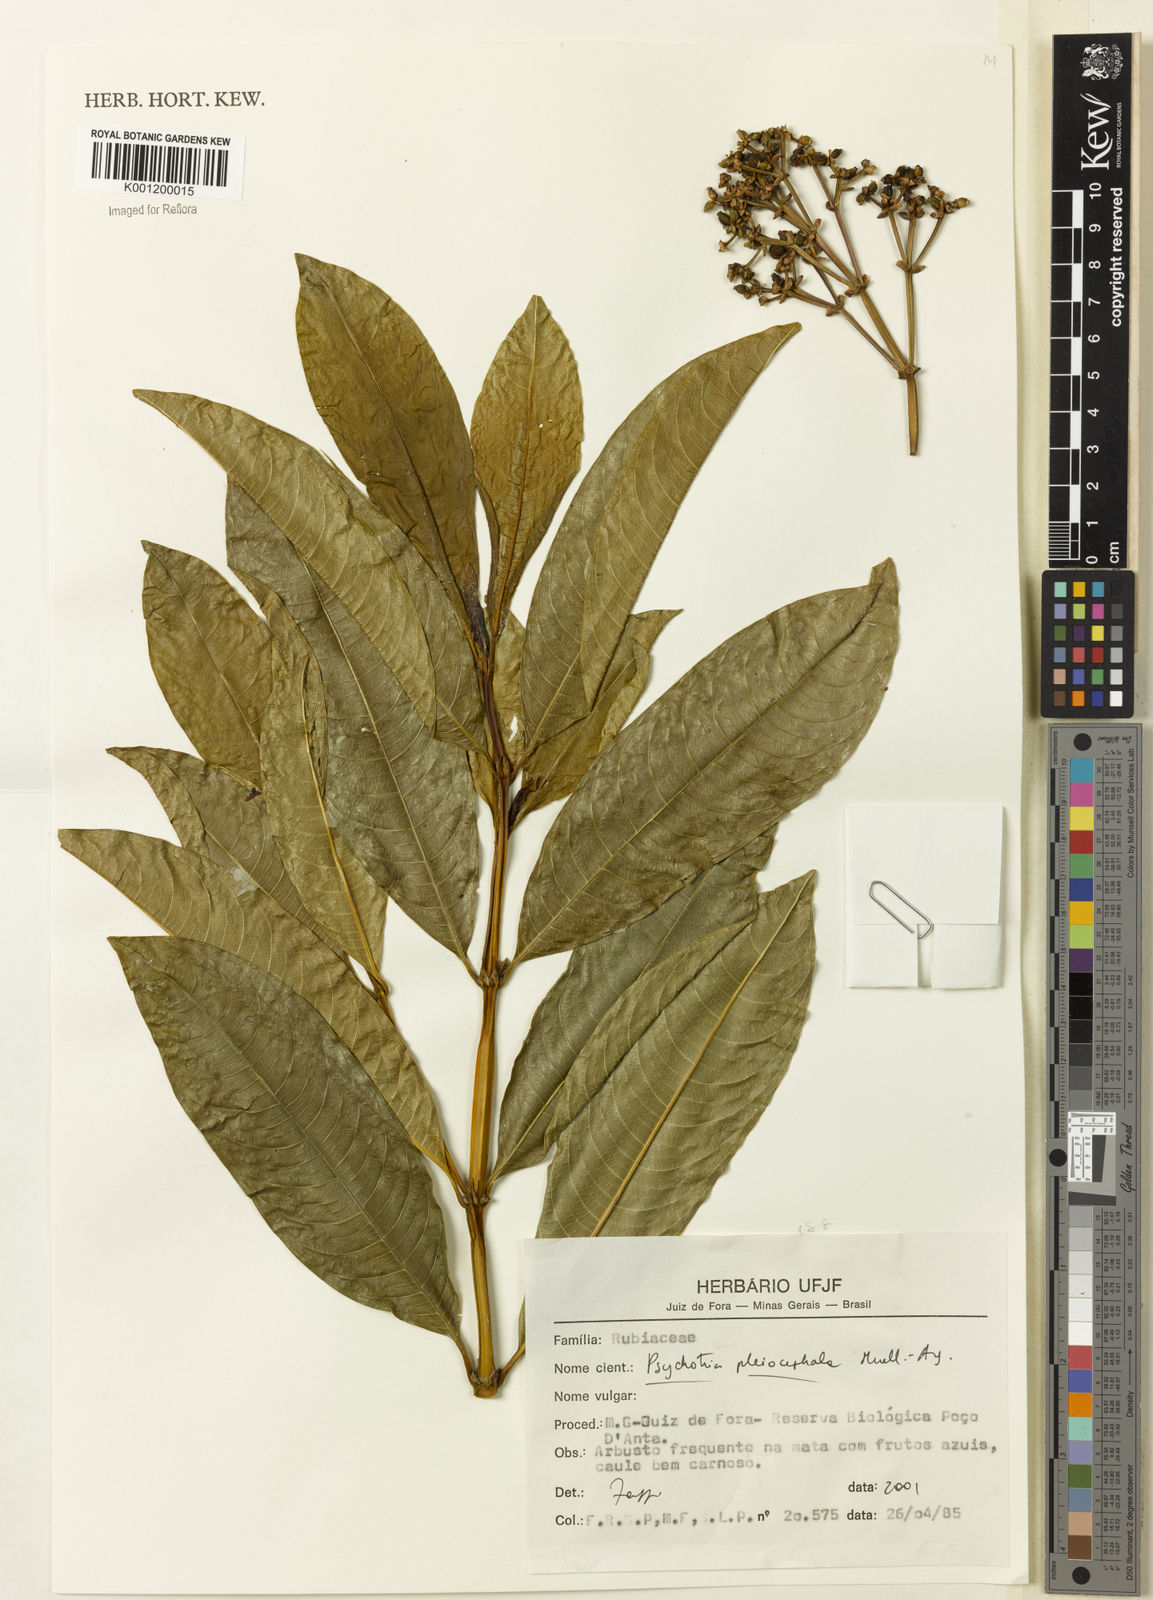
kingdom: Plantae
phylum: Tracheophyta
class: Magnoliopsida
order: Gentianales
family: Rubiaceae
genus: Psychotria
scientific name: Psychotria
